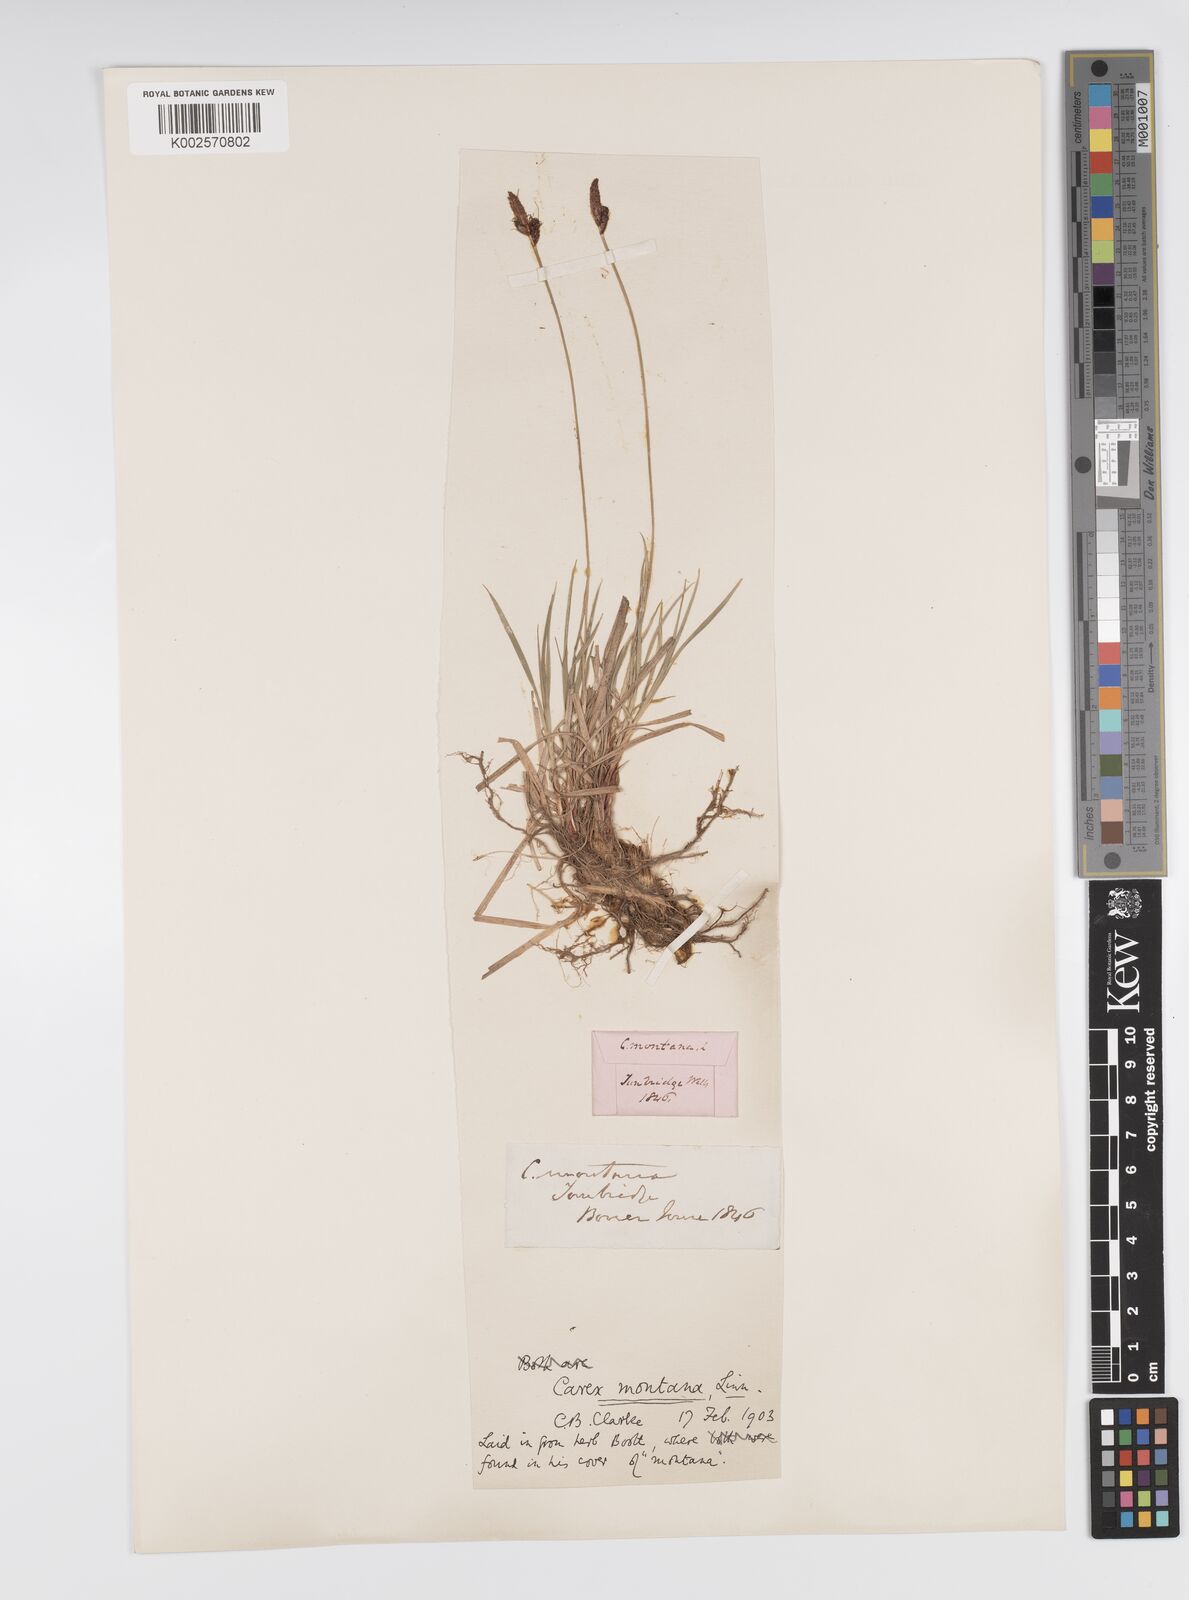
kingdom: Plantae
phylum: Tracheophyta
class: Liliopsida
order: Poales
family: Cyperaceae
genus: Carex
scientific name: Carex montana
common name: Soft-leaved sedge
